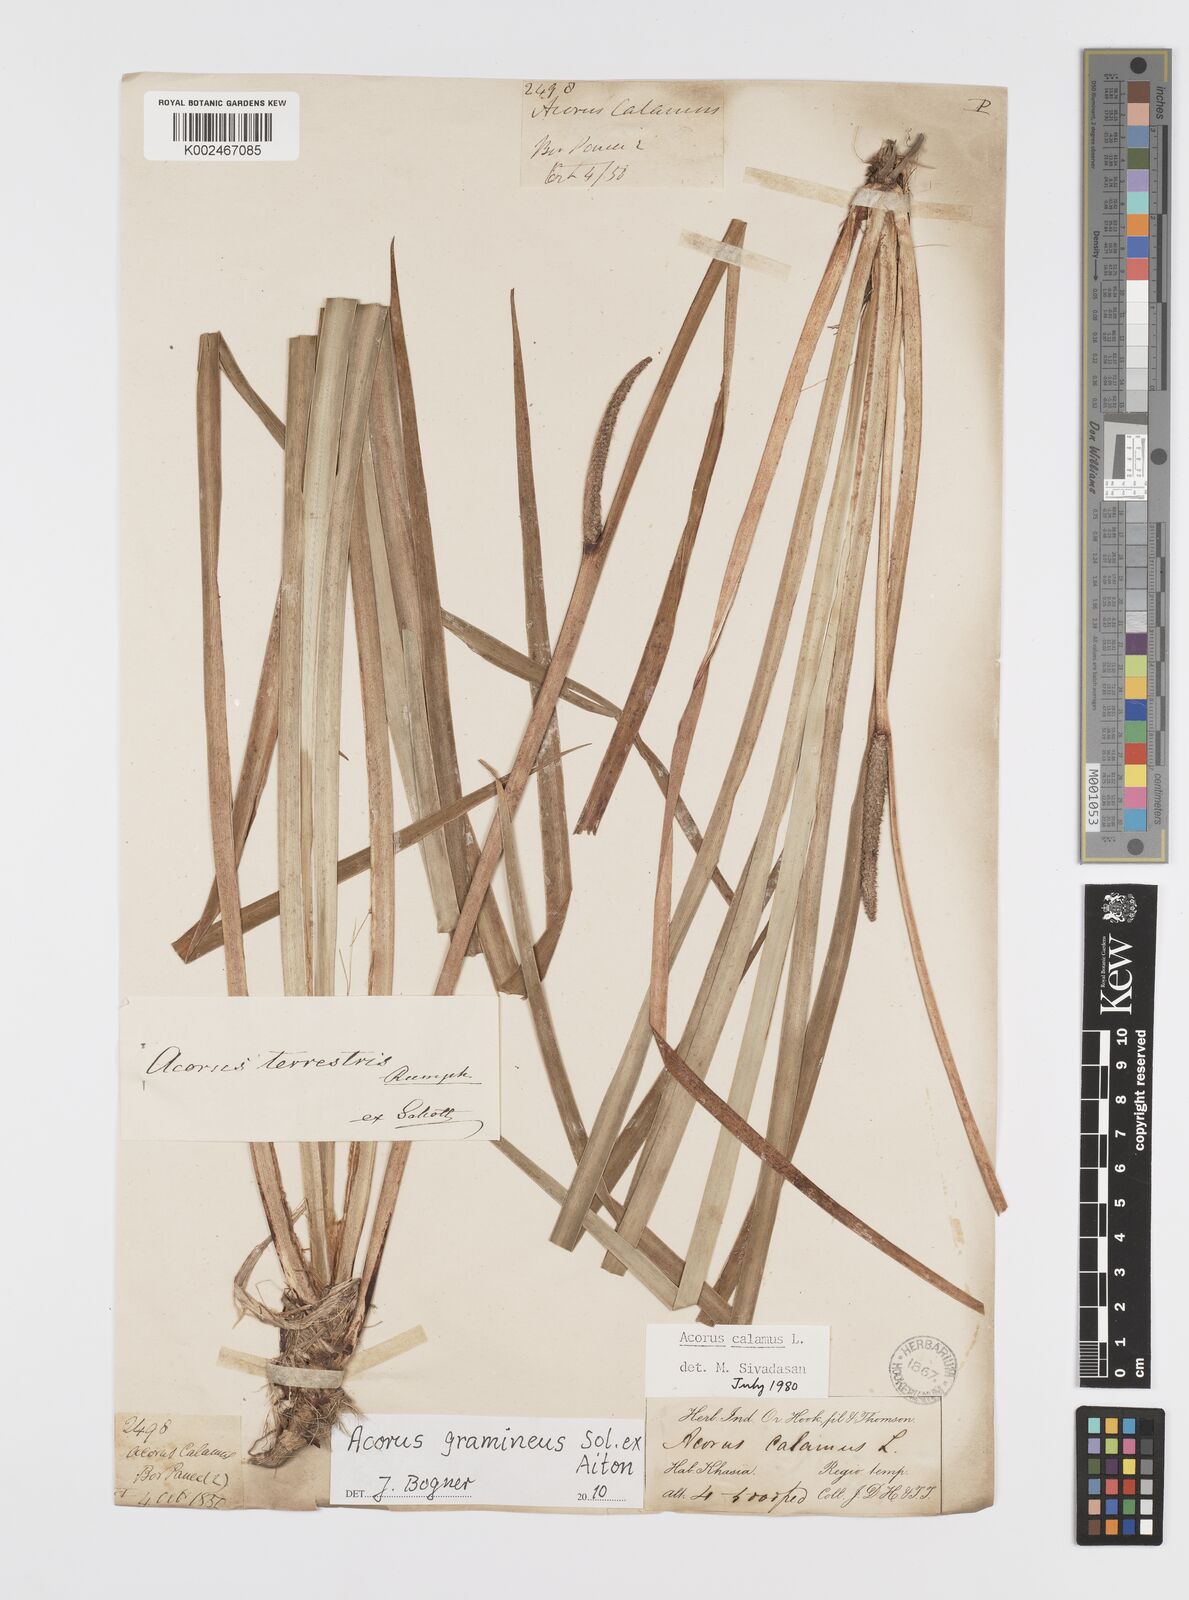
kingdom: Plantae
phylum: Tracheophyta
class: Liliopsida
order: Acorales
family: Acoraceae
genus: Acorus
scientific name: Acorus gramineus
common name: Slender sweet-flag
